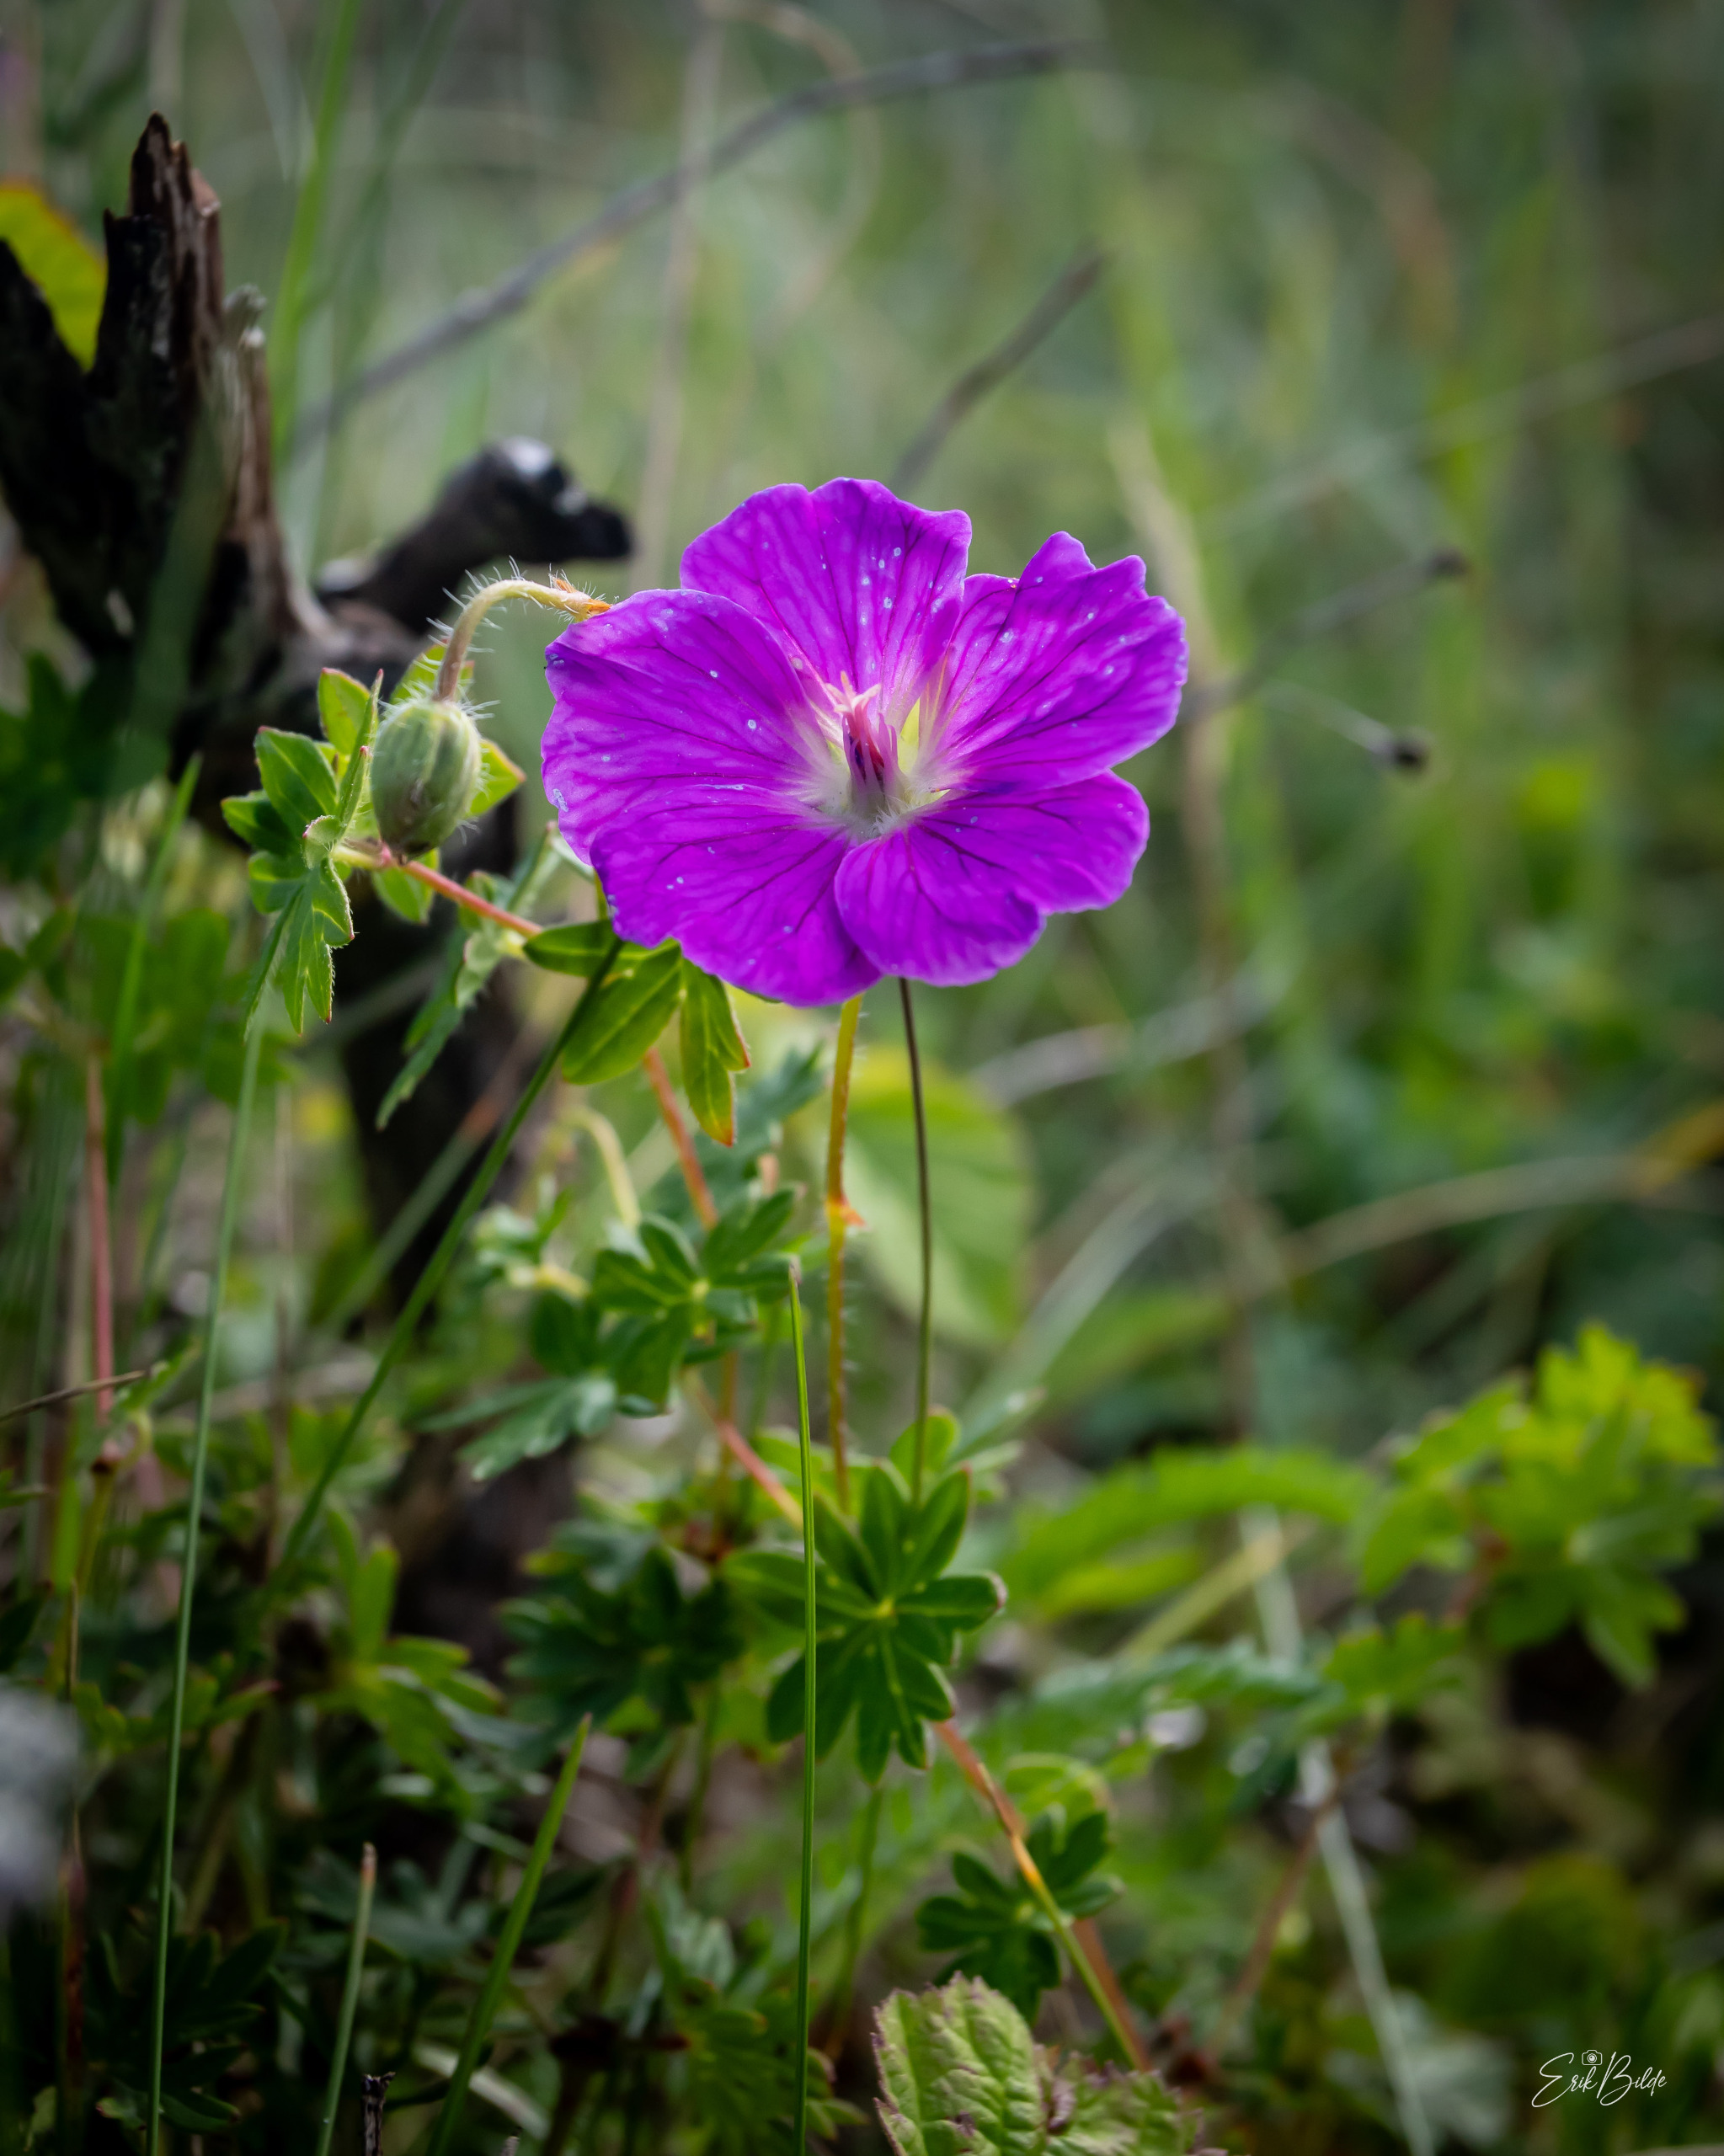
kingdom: Plantae
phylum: Tracheophyta
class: Magnoliopsida
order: Geraniales
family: Geraniaceae
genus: Geranium
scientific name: Geranium sanguineum
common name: Blodrød storkenæb
